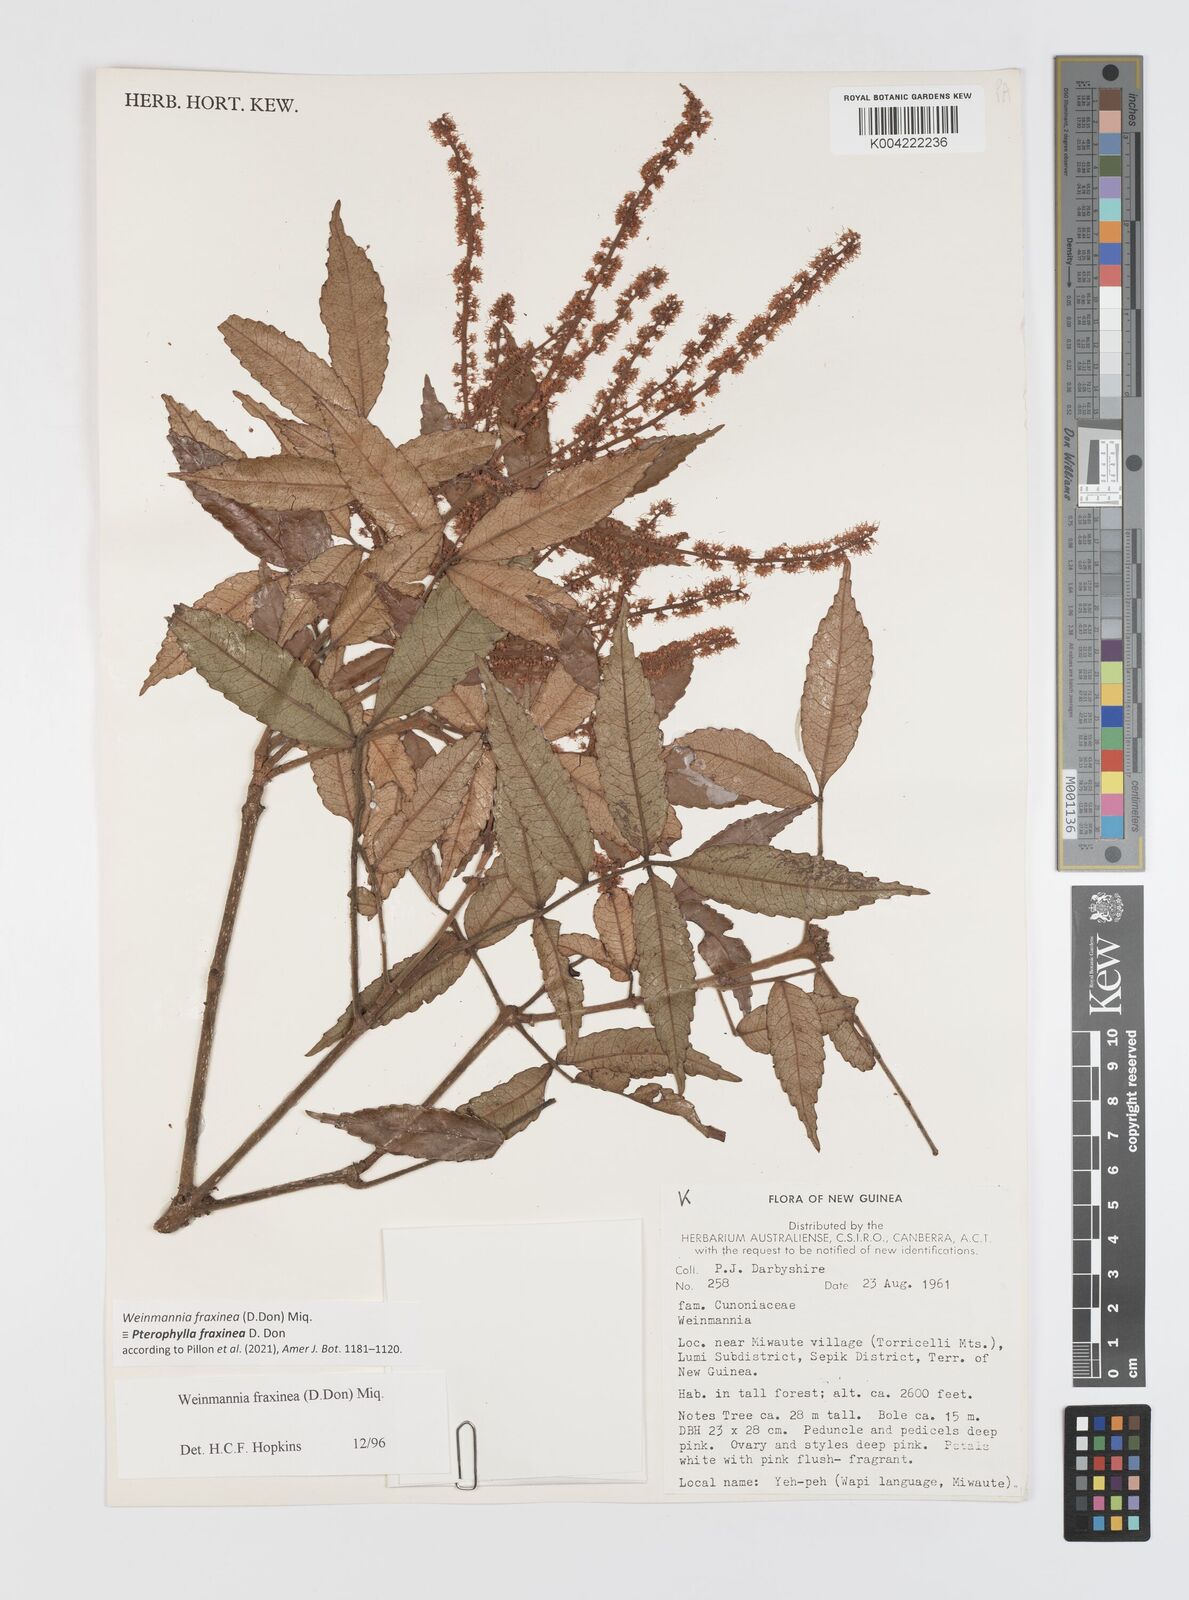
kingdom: Plantae
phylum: Tracheophyta
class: Magnoliopsida
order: Oxalidales
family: Cunoniaceae
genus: Pterophylla
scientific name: Pterophylla fraxinea
